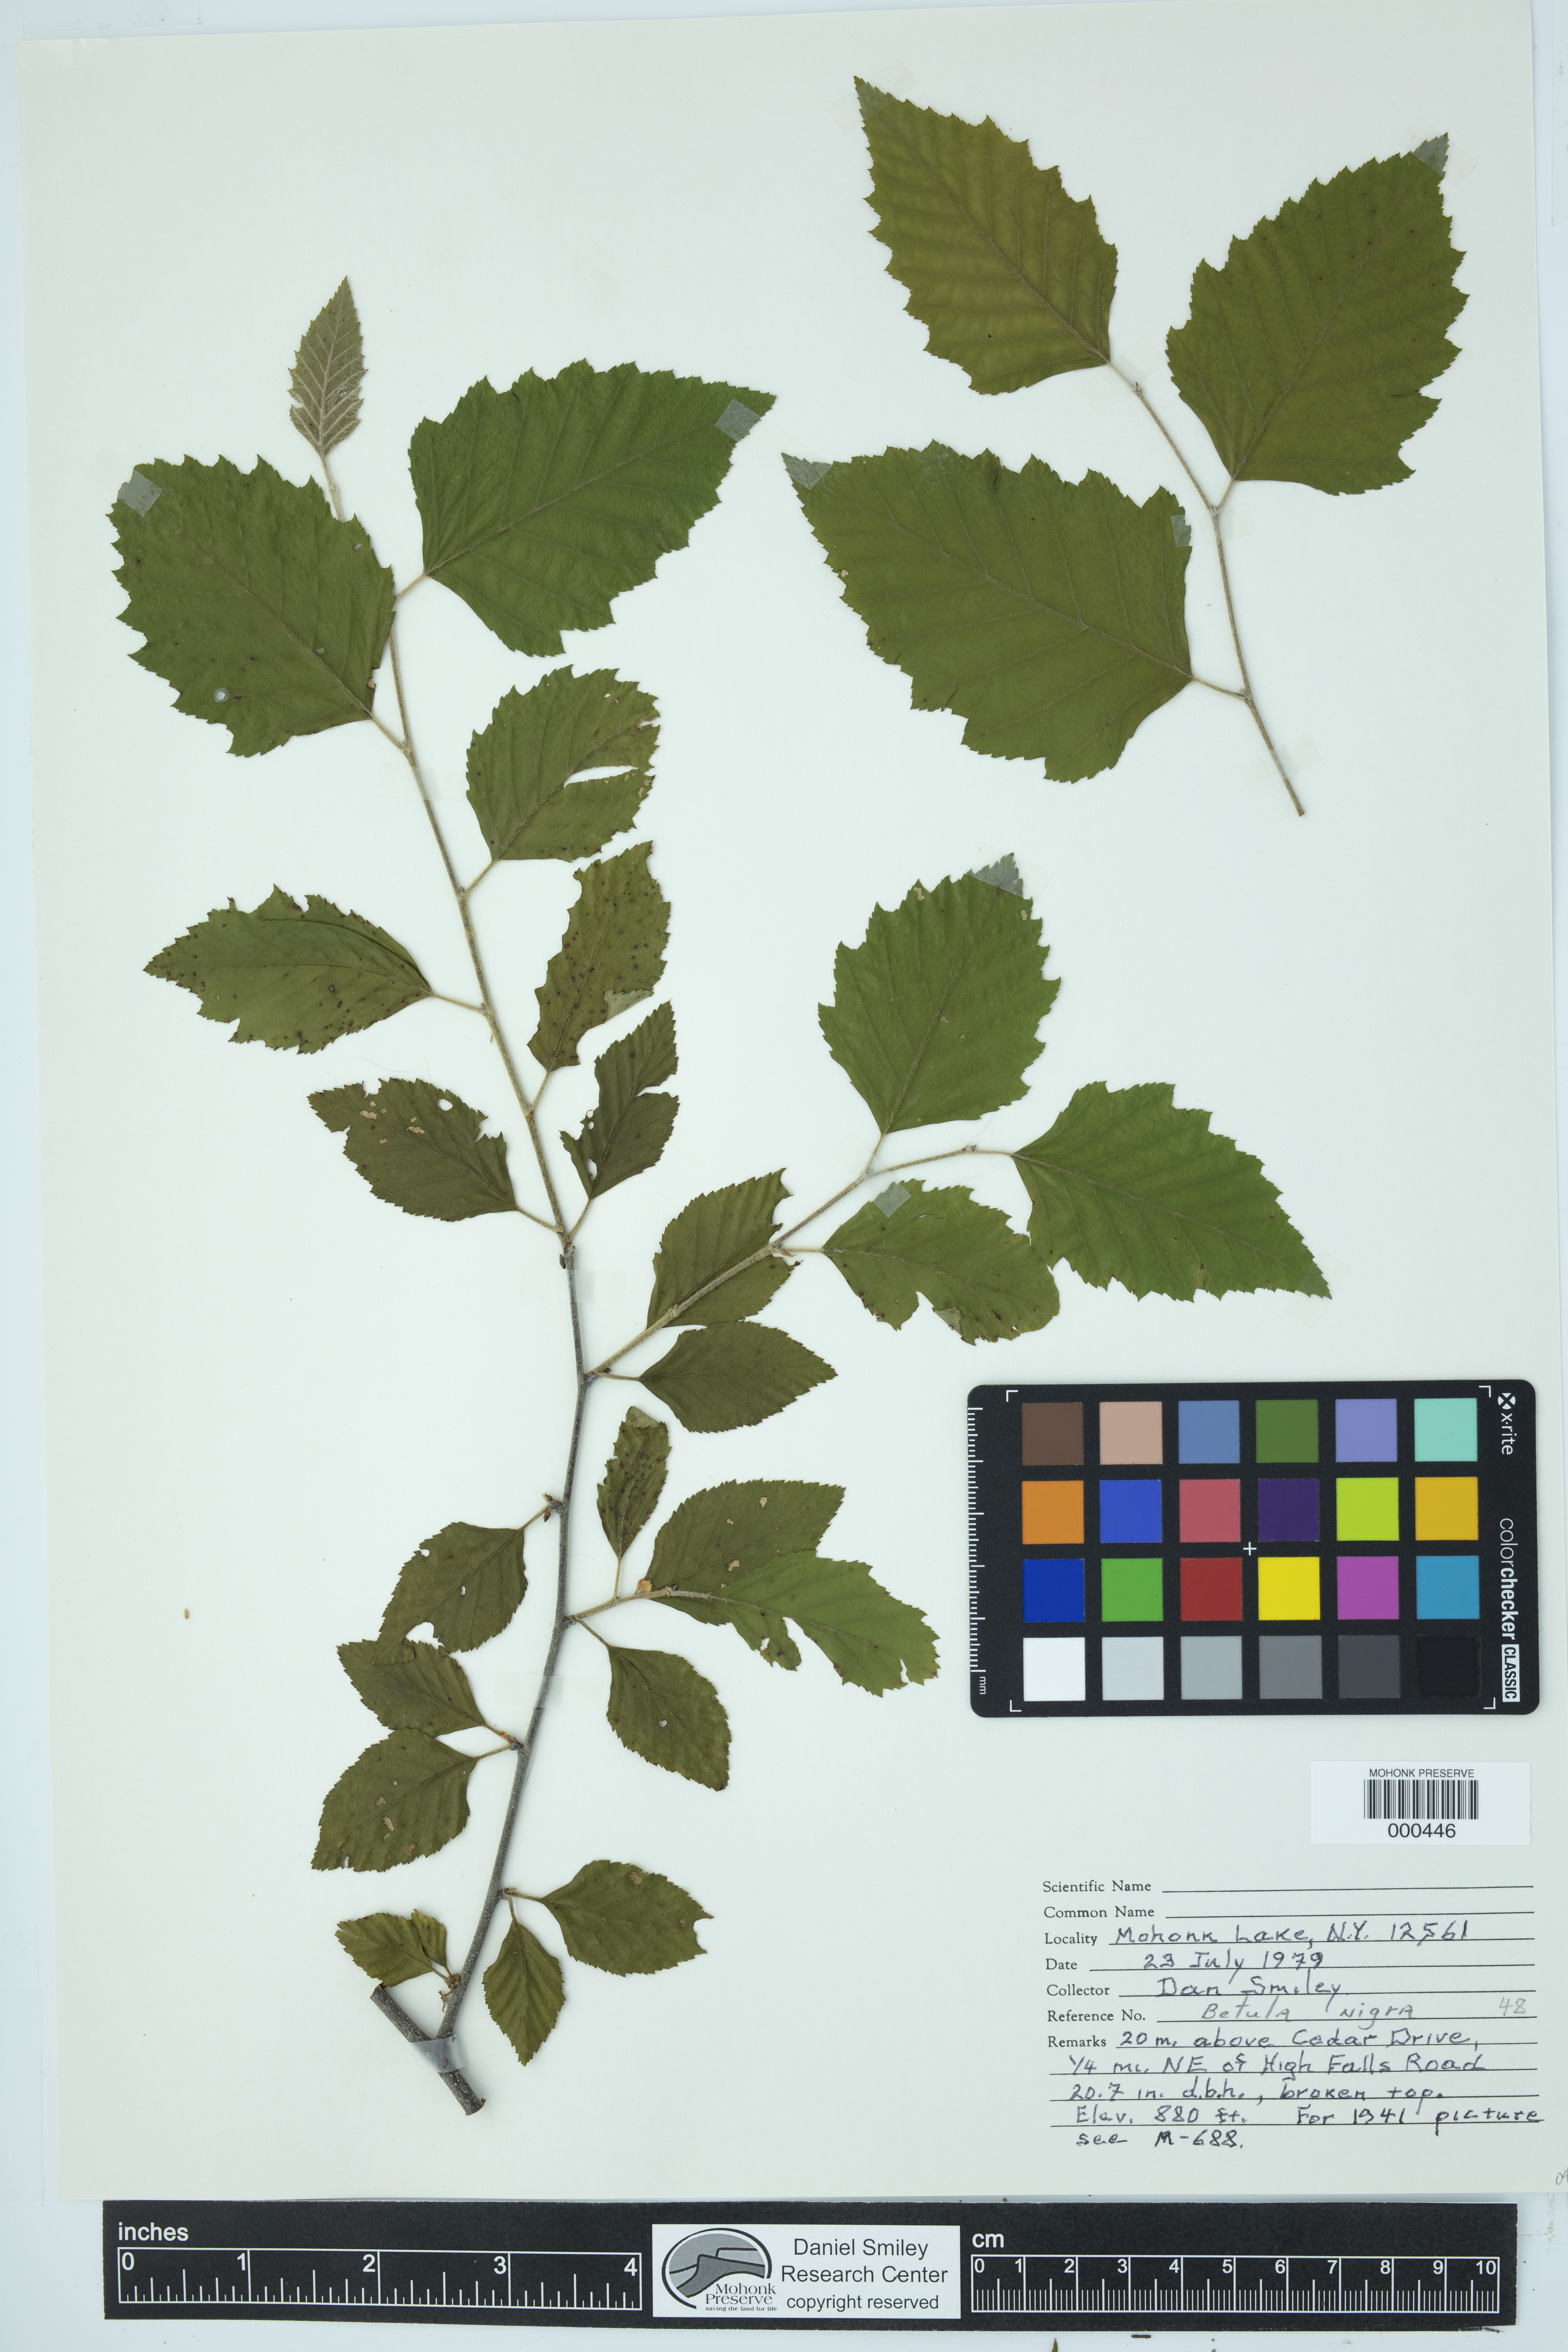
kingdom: Plantae
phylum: Tracheophyta
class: Magnoliopsida
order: Fagales
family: Betulaceae
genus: Betula
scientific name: Betula nigra
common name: Black birch
